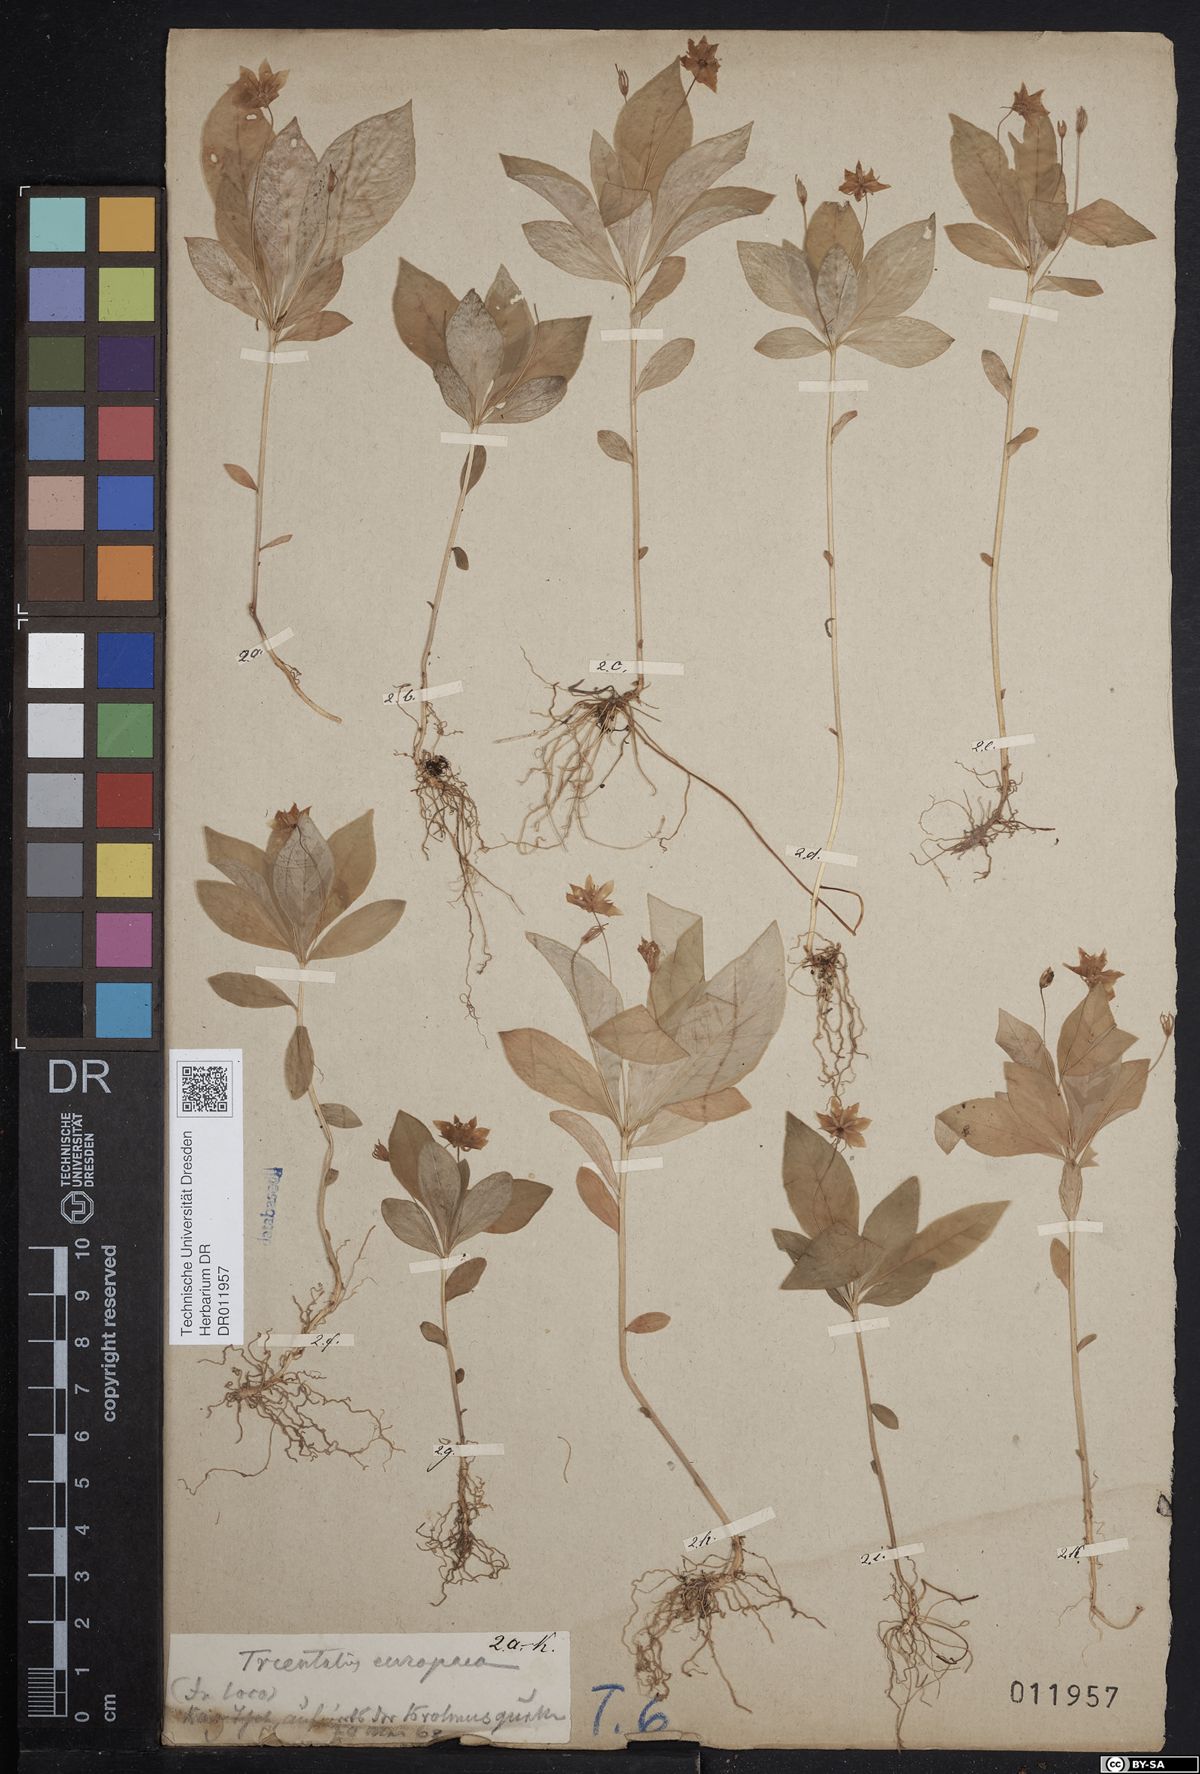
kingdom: Plantae
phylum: Tracheophyta
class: Magnoliopsida
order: Ericales
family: Primulaceae
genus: Lysimachia
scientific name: Lysimachia europaea
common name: Arctic starflower
